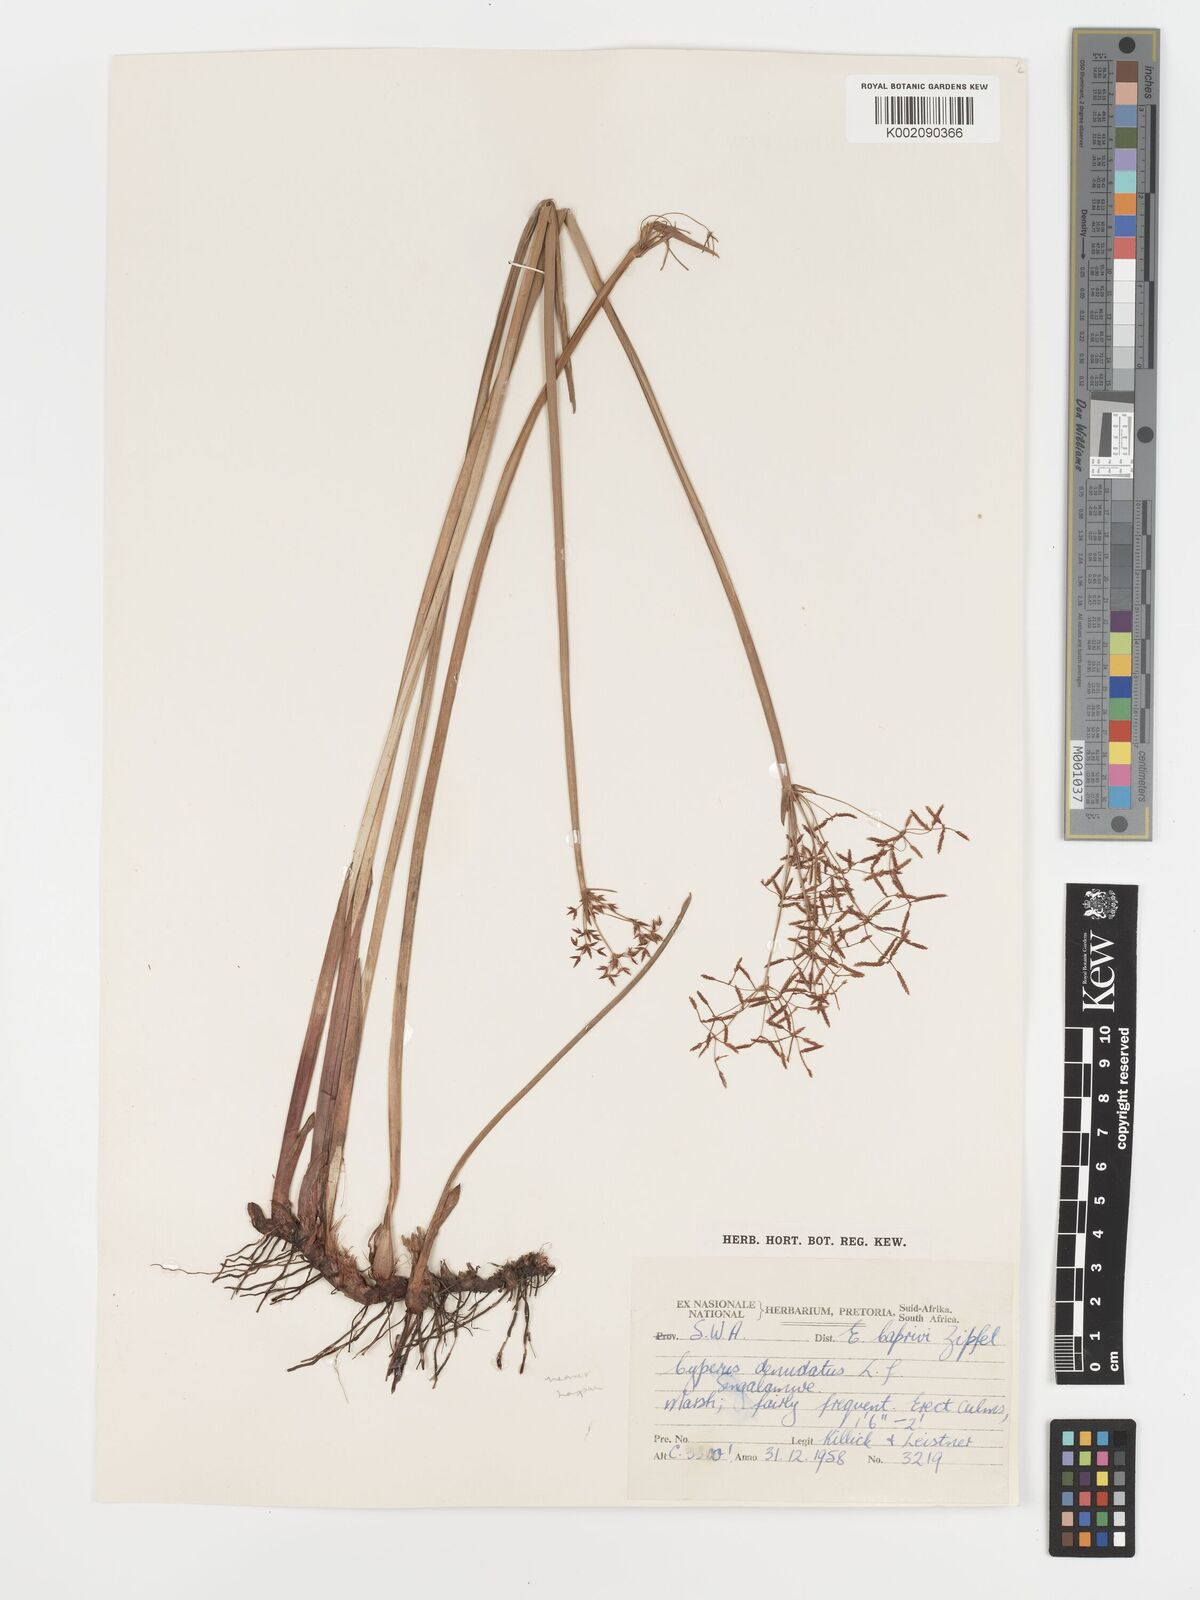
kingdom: Plantae
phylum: Tracheophyta
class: Liliopsida
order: Poales
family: Cyperaceae
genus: Cyperus
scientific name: Cyperus haspan
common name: Haspan flatsedge
